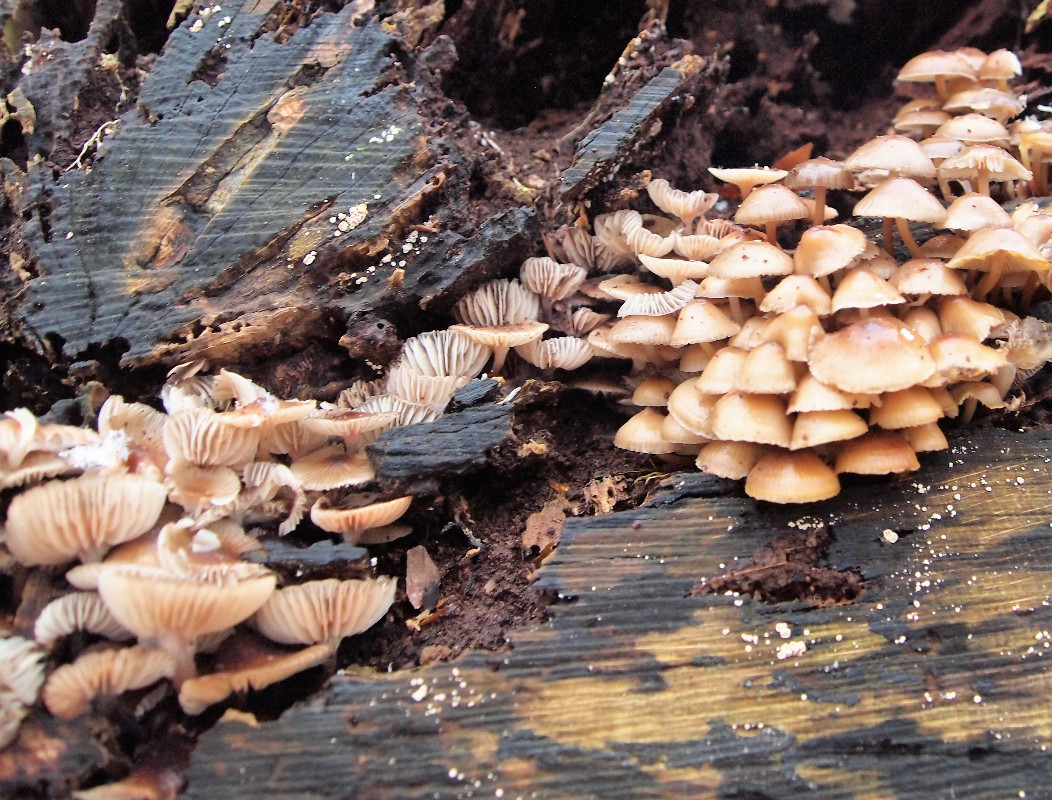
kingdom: Fungi
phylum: Basidiomycota
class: Agaricomycetes
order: Agaricales
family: Mycenaceae
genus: Mycena
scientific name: Mycena tintinnabulum
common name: vinter-huesvamp
